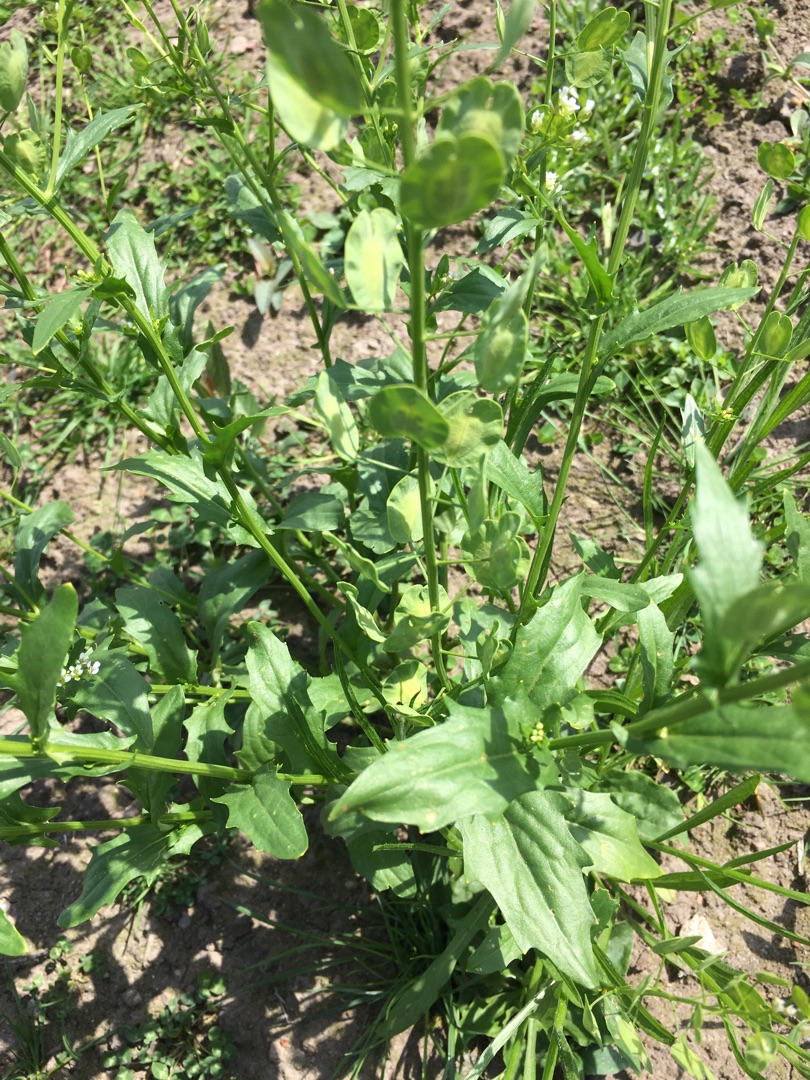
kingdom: Plantae
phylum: Tracheophyta
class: Magnoliopsida
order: Brassicales
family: Brassicaceae
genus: Thlaspi
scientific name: Thlaspi arvense
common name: Almindelig pengeurt
